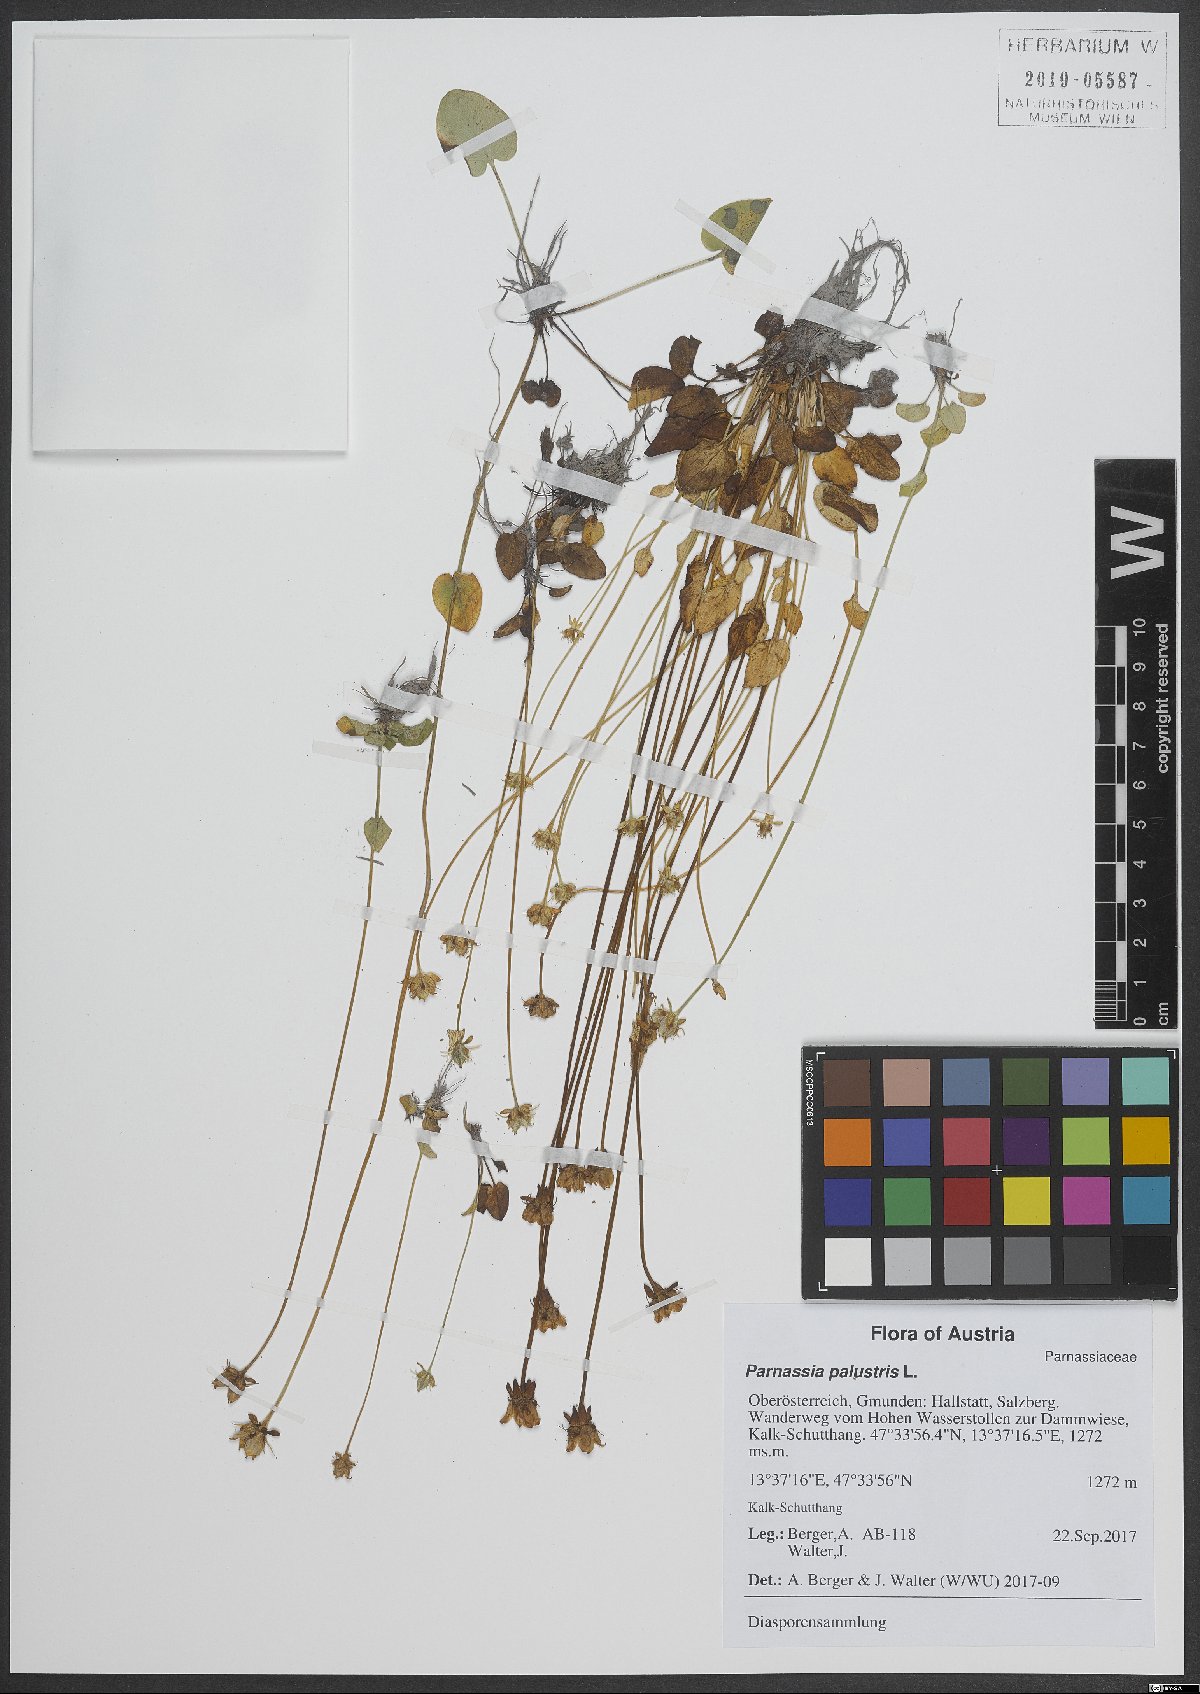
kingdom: Plantae
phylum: Tracheophyta
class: Magnoliopsida
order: Celastrales
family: Parnassiaceae
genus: Parnassia
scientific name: Parnassia palustris
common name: Grass-of-parnassus
